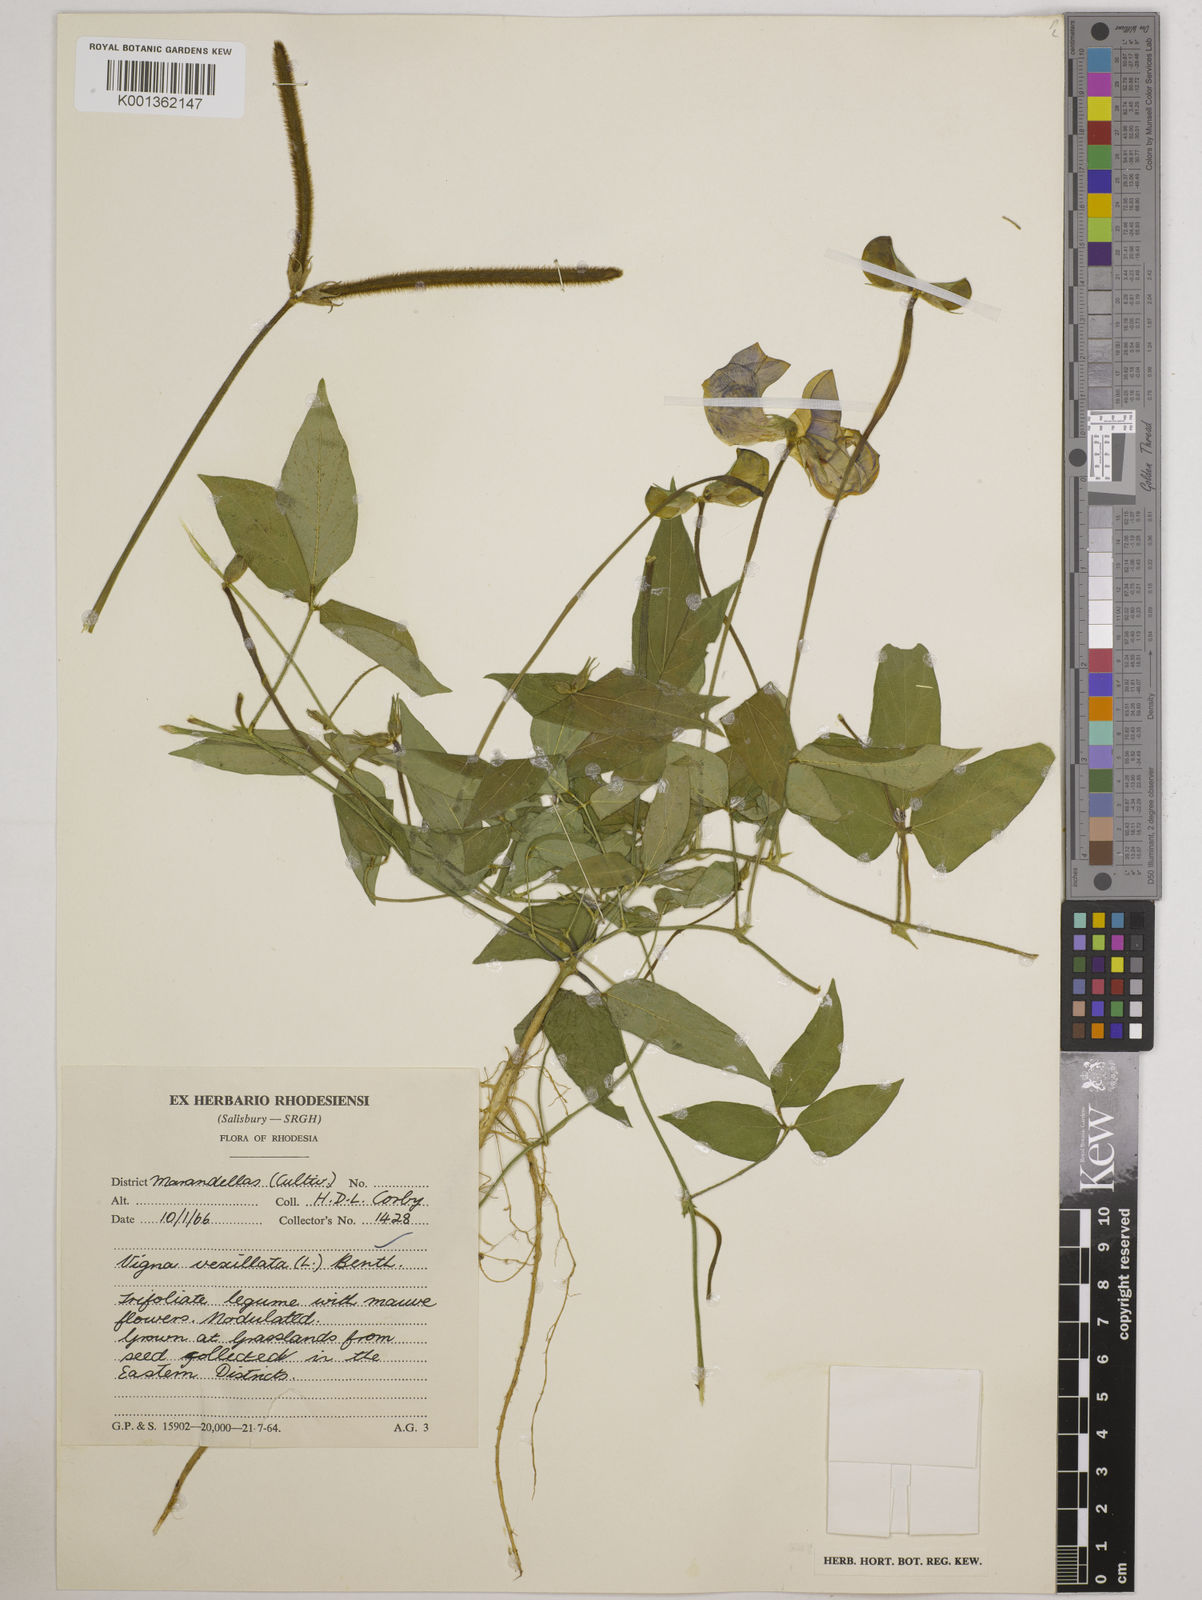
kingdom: Plantae
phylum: Tracheophyta
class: Magnoliopsida
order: Fabales
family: Fabaceae
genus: Vigna
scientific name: Vigna vexillata
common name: Zombi pea
